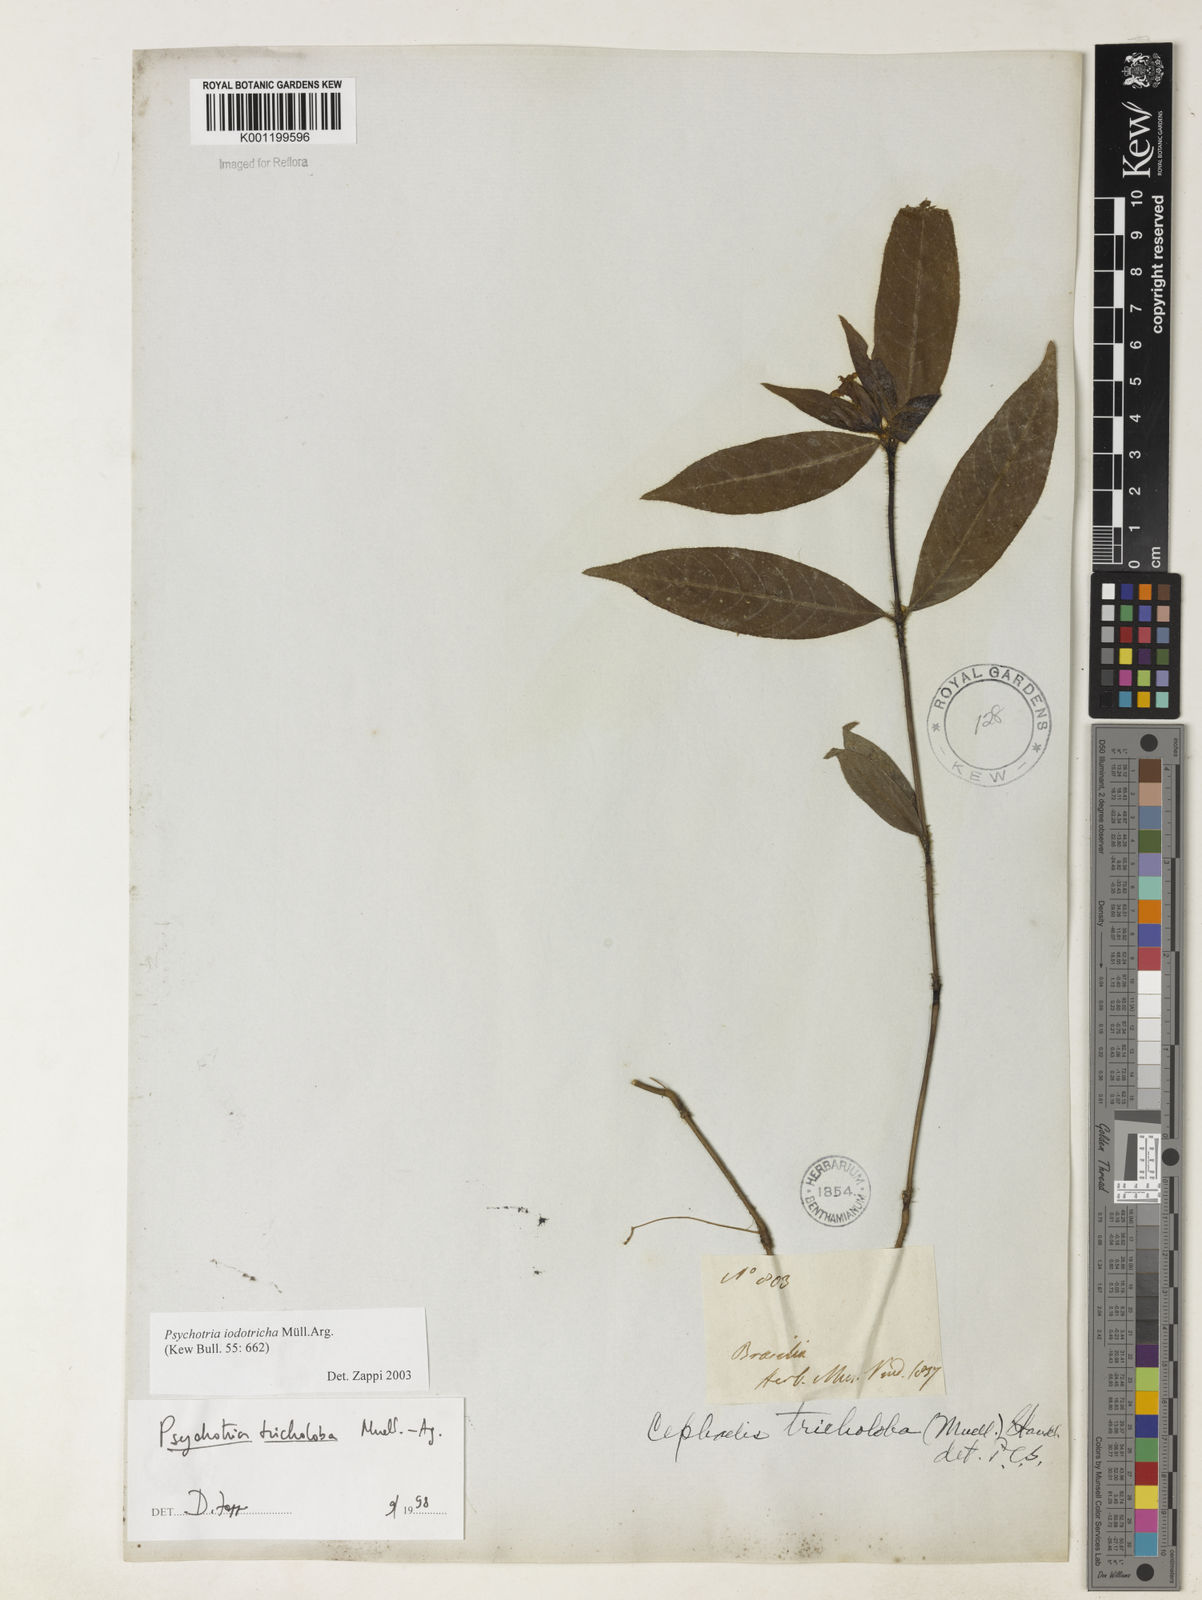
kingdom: Plantae
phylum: Tracheophyta
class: Magnoliopsida
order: Gentianales
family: Rubiaceae
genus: Psychotria
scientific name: Psychotria
